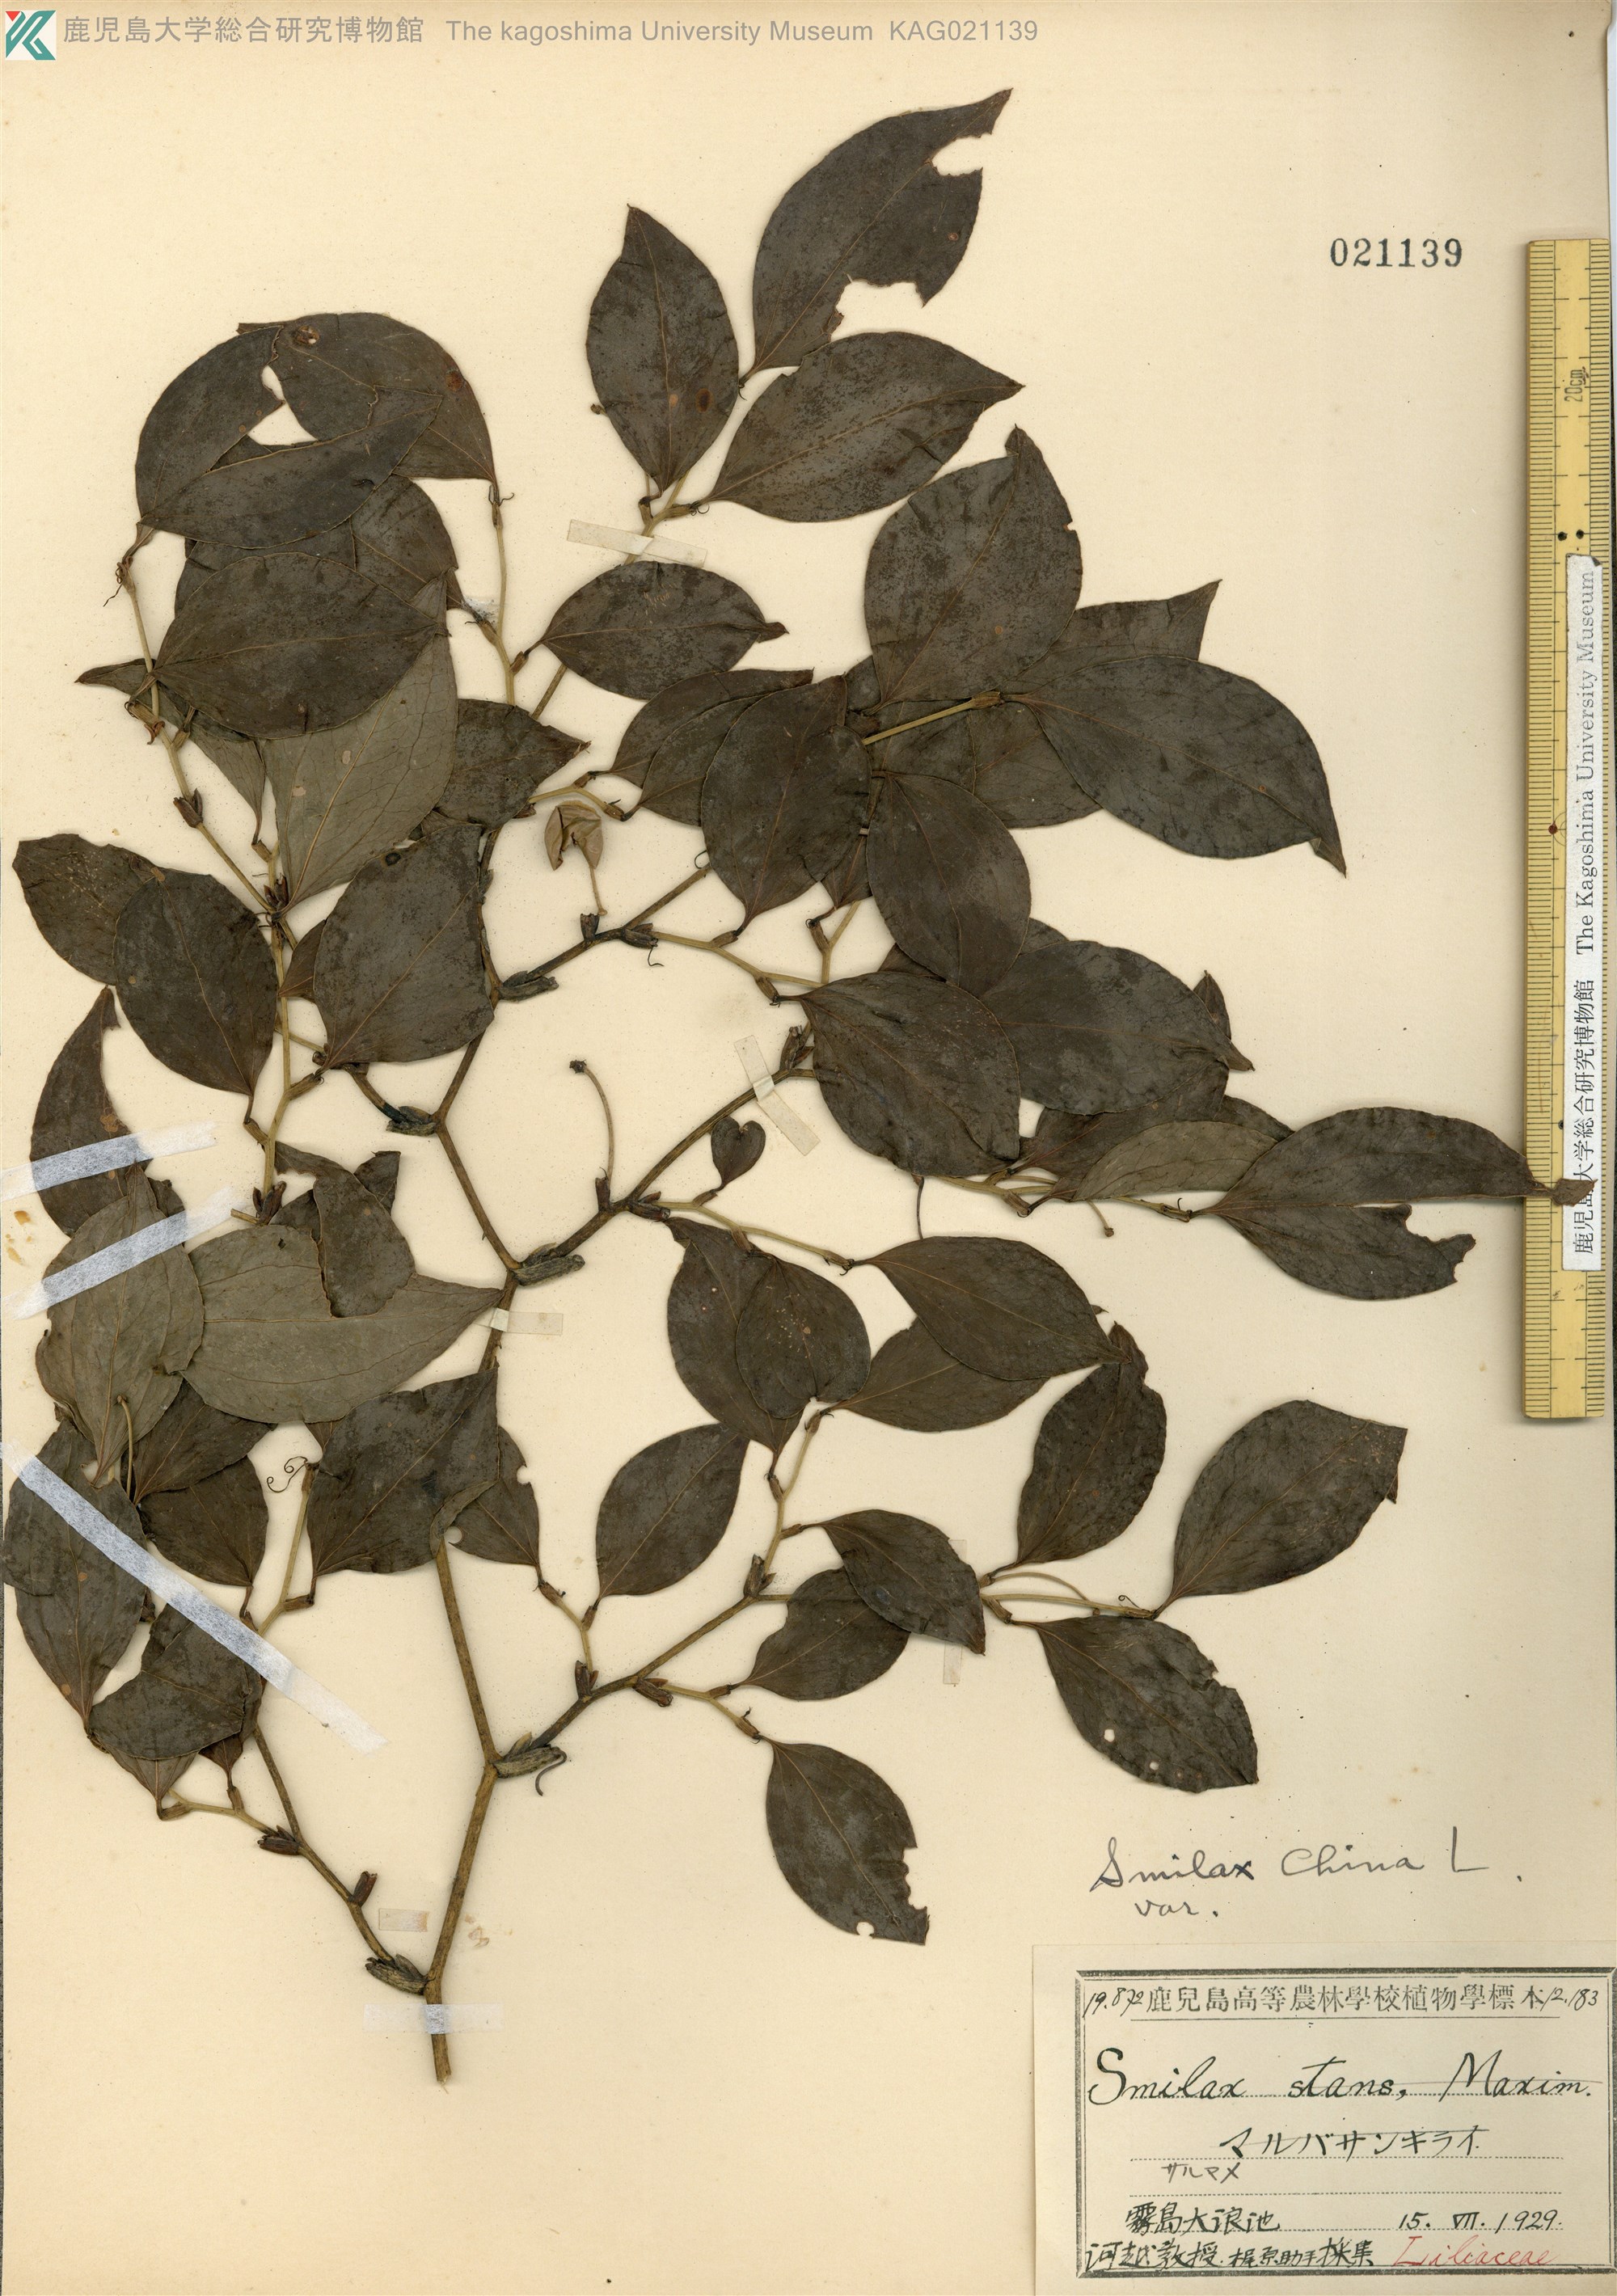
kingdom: Plantae
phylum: Tracheophyta
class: Liliopsida
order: Liliales
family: Smilacaceae
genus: Smilax
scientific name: Smilax china
